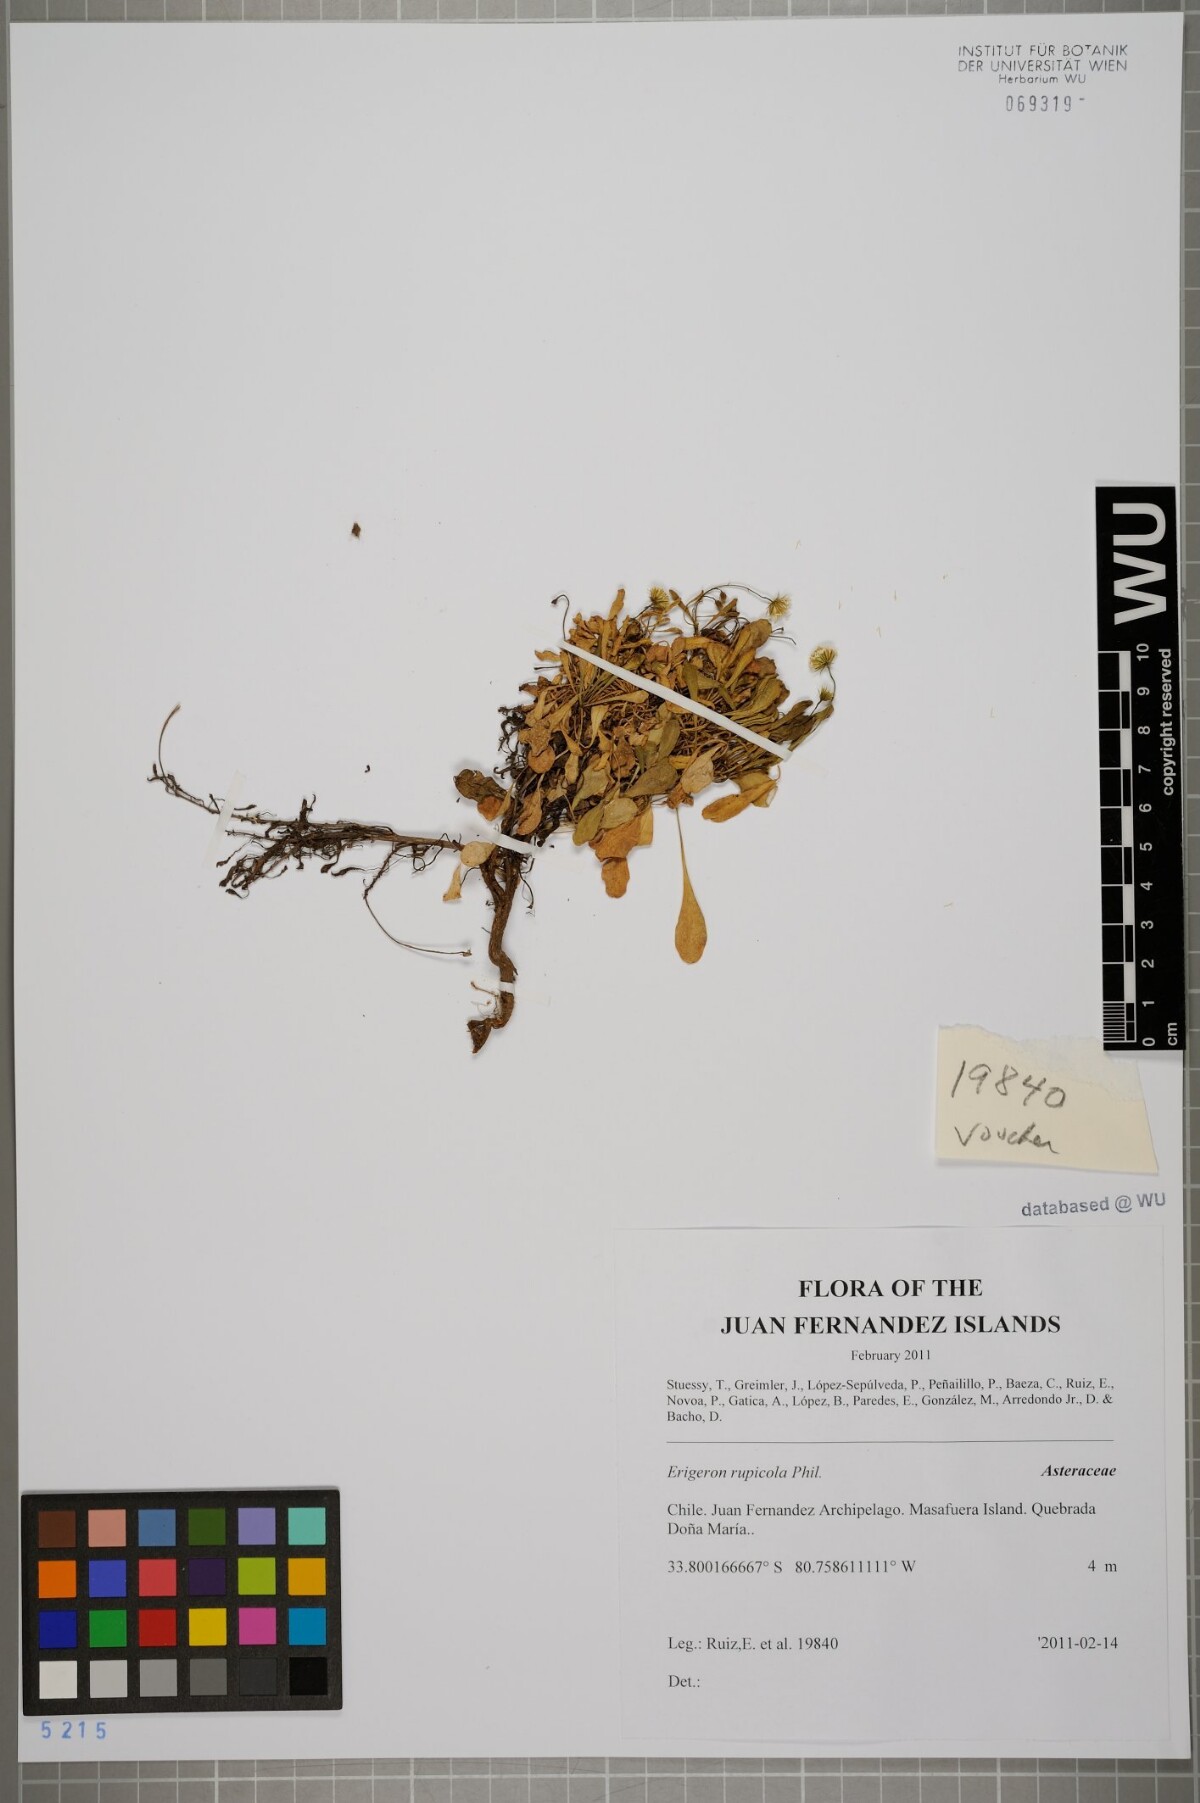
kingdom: Plantae
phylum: Tracheophyta
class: Magnoliopsida
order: Asterales
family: Asteraceae
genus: Erigeron
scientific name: Erigeron rupicola
